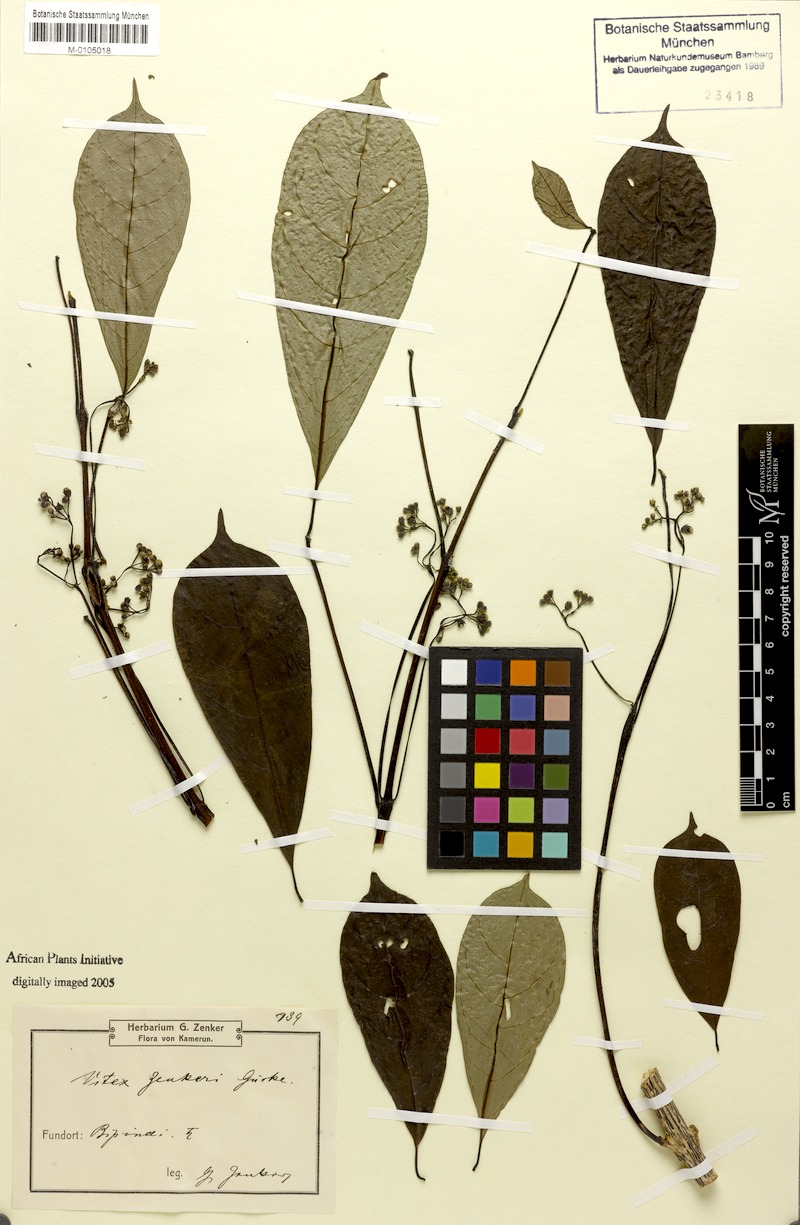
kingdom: Plantae
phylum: Tracheophyta
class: Magnoliopsida
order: Lamiales
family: Lamiaceae
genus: Vitex
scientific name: Vitex zenkeri
